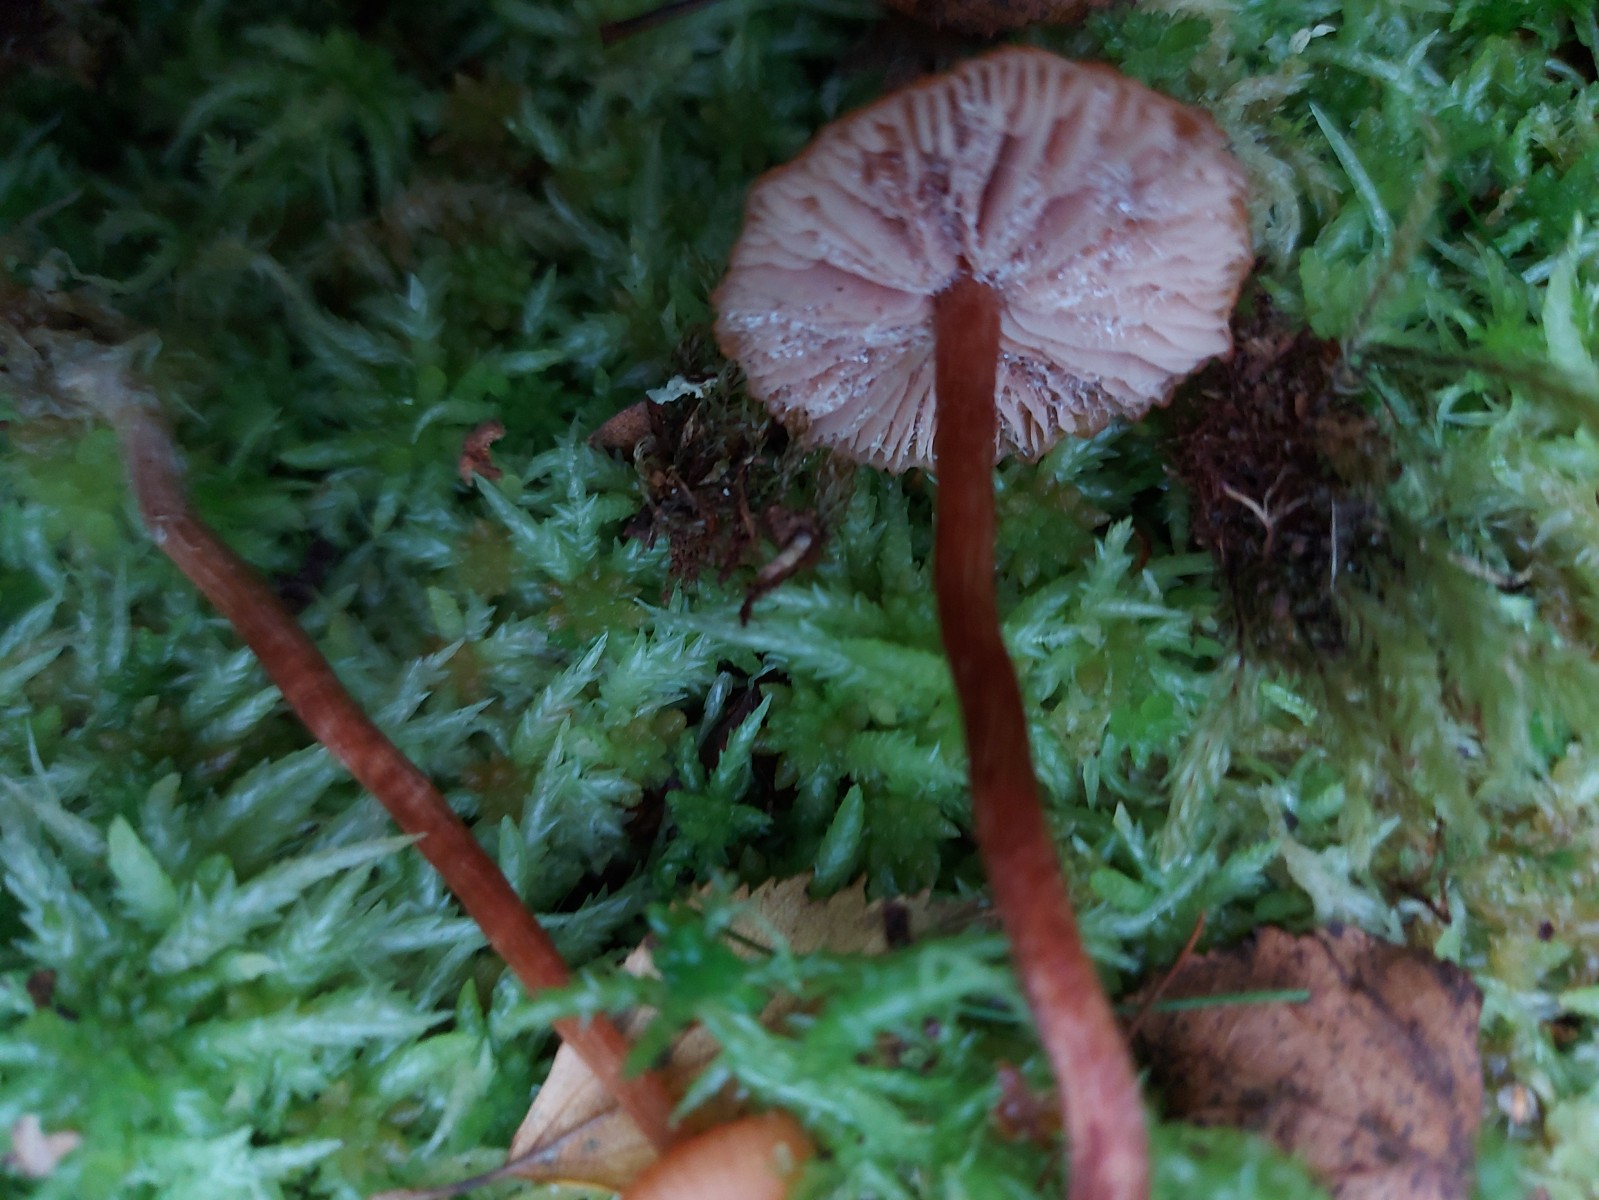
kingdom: Fungi
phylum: Basidiomycota
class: Agaricomycetes
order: Agaricales
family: Hydnangiaceae
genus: Laccaria
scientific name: Laccaria laccata
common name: rød ametysthat
